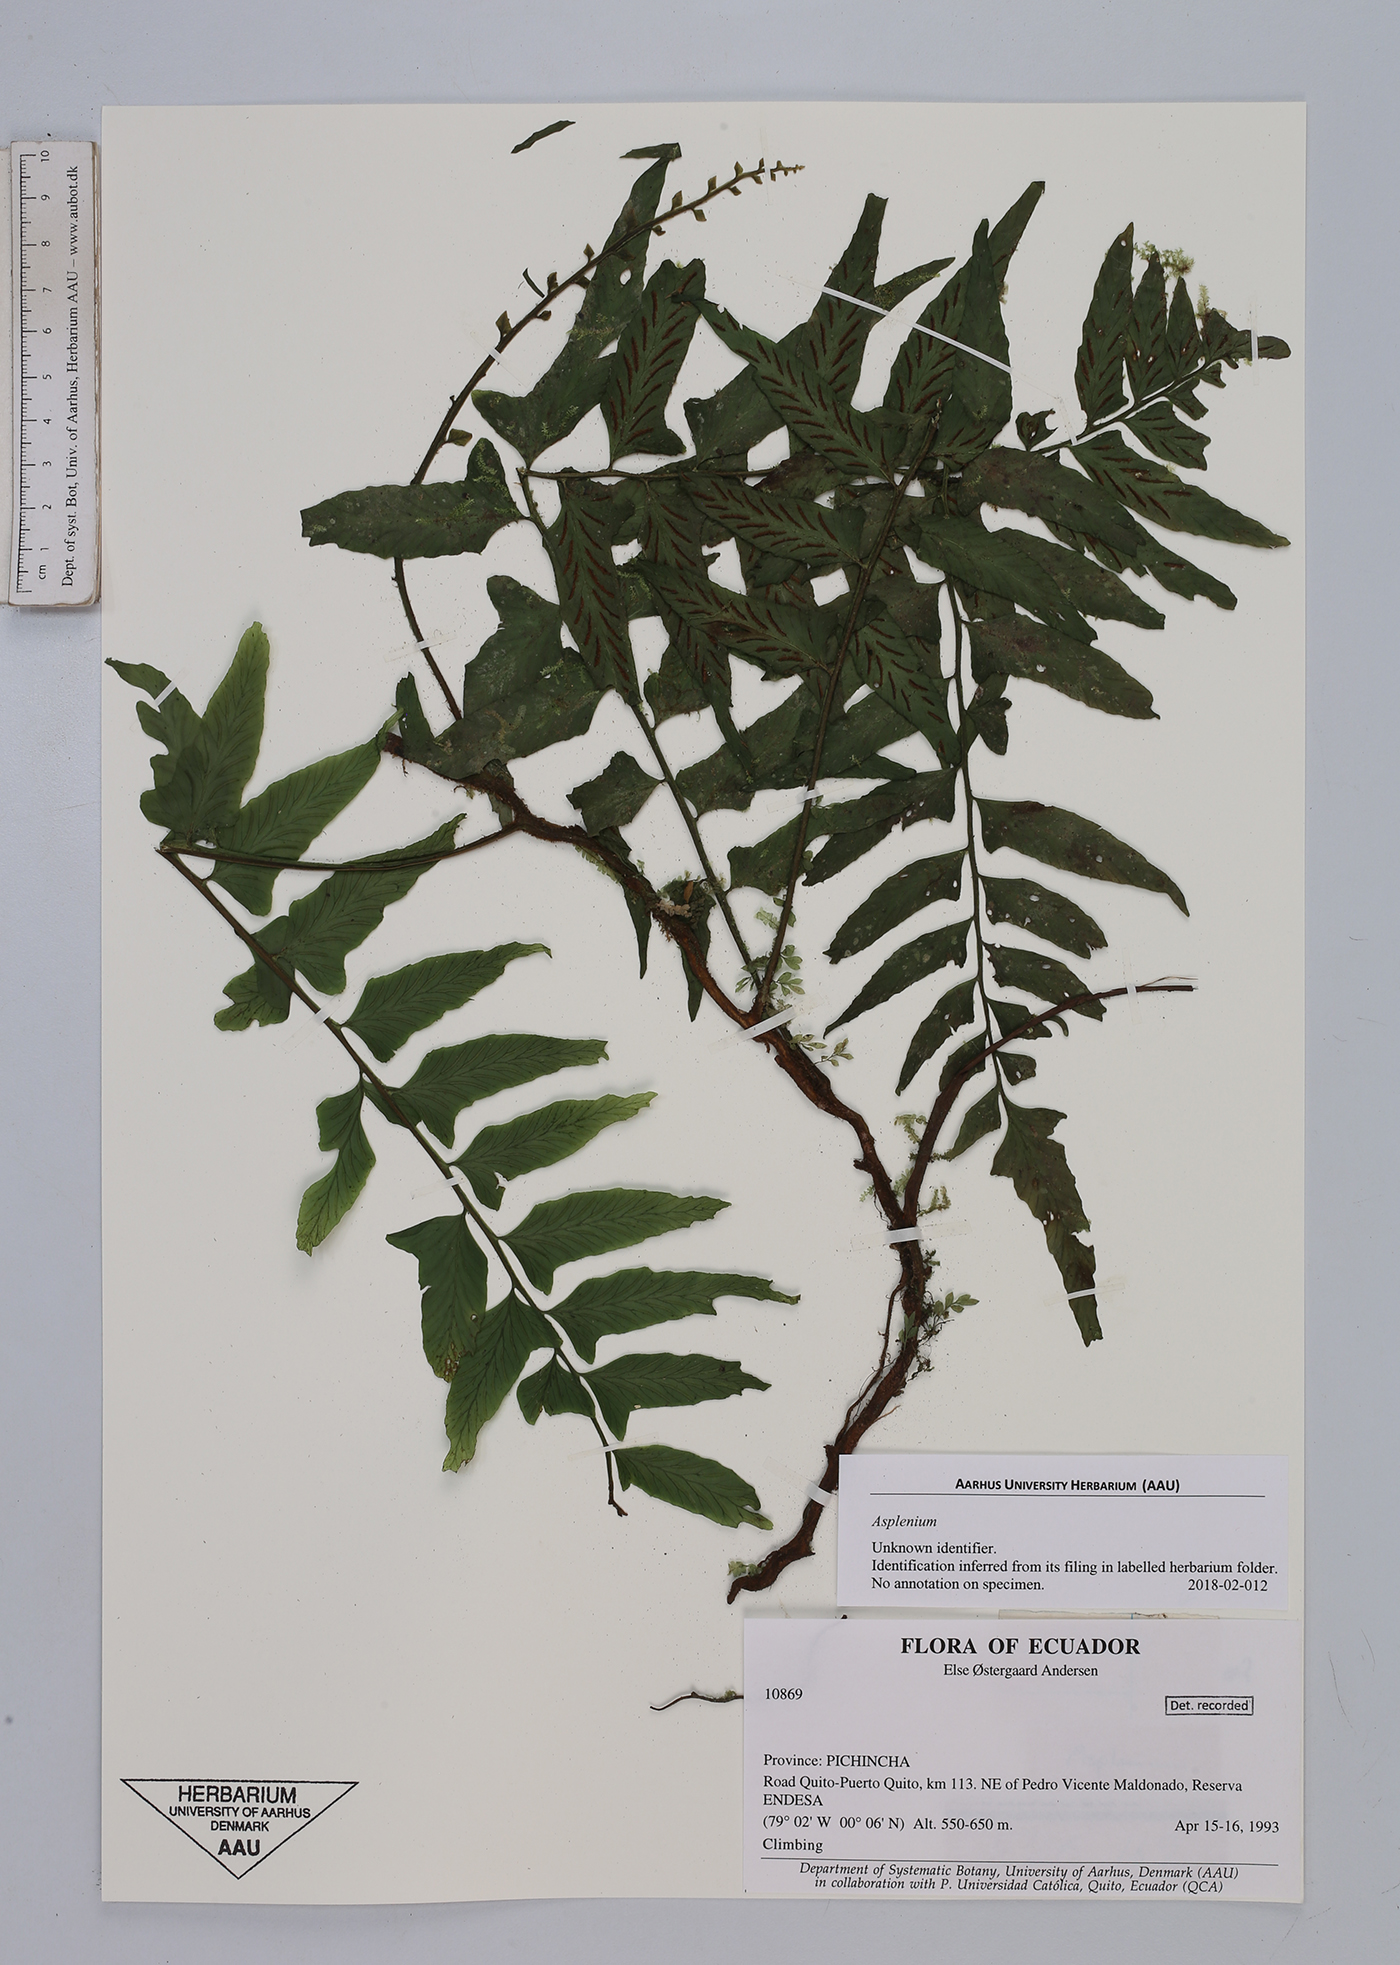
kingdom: Plantae
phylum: Tracheophyta
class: Polypodiopsida
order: Polypodiales
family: Aspleniaceae
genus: Asplenium
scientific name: Asplenium
